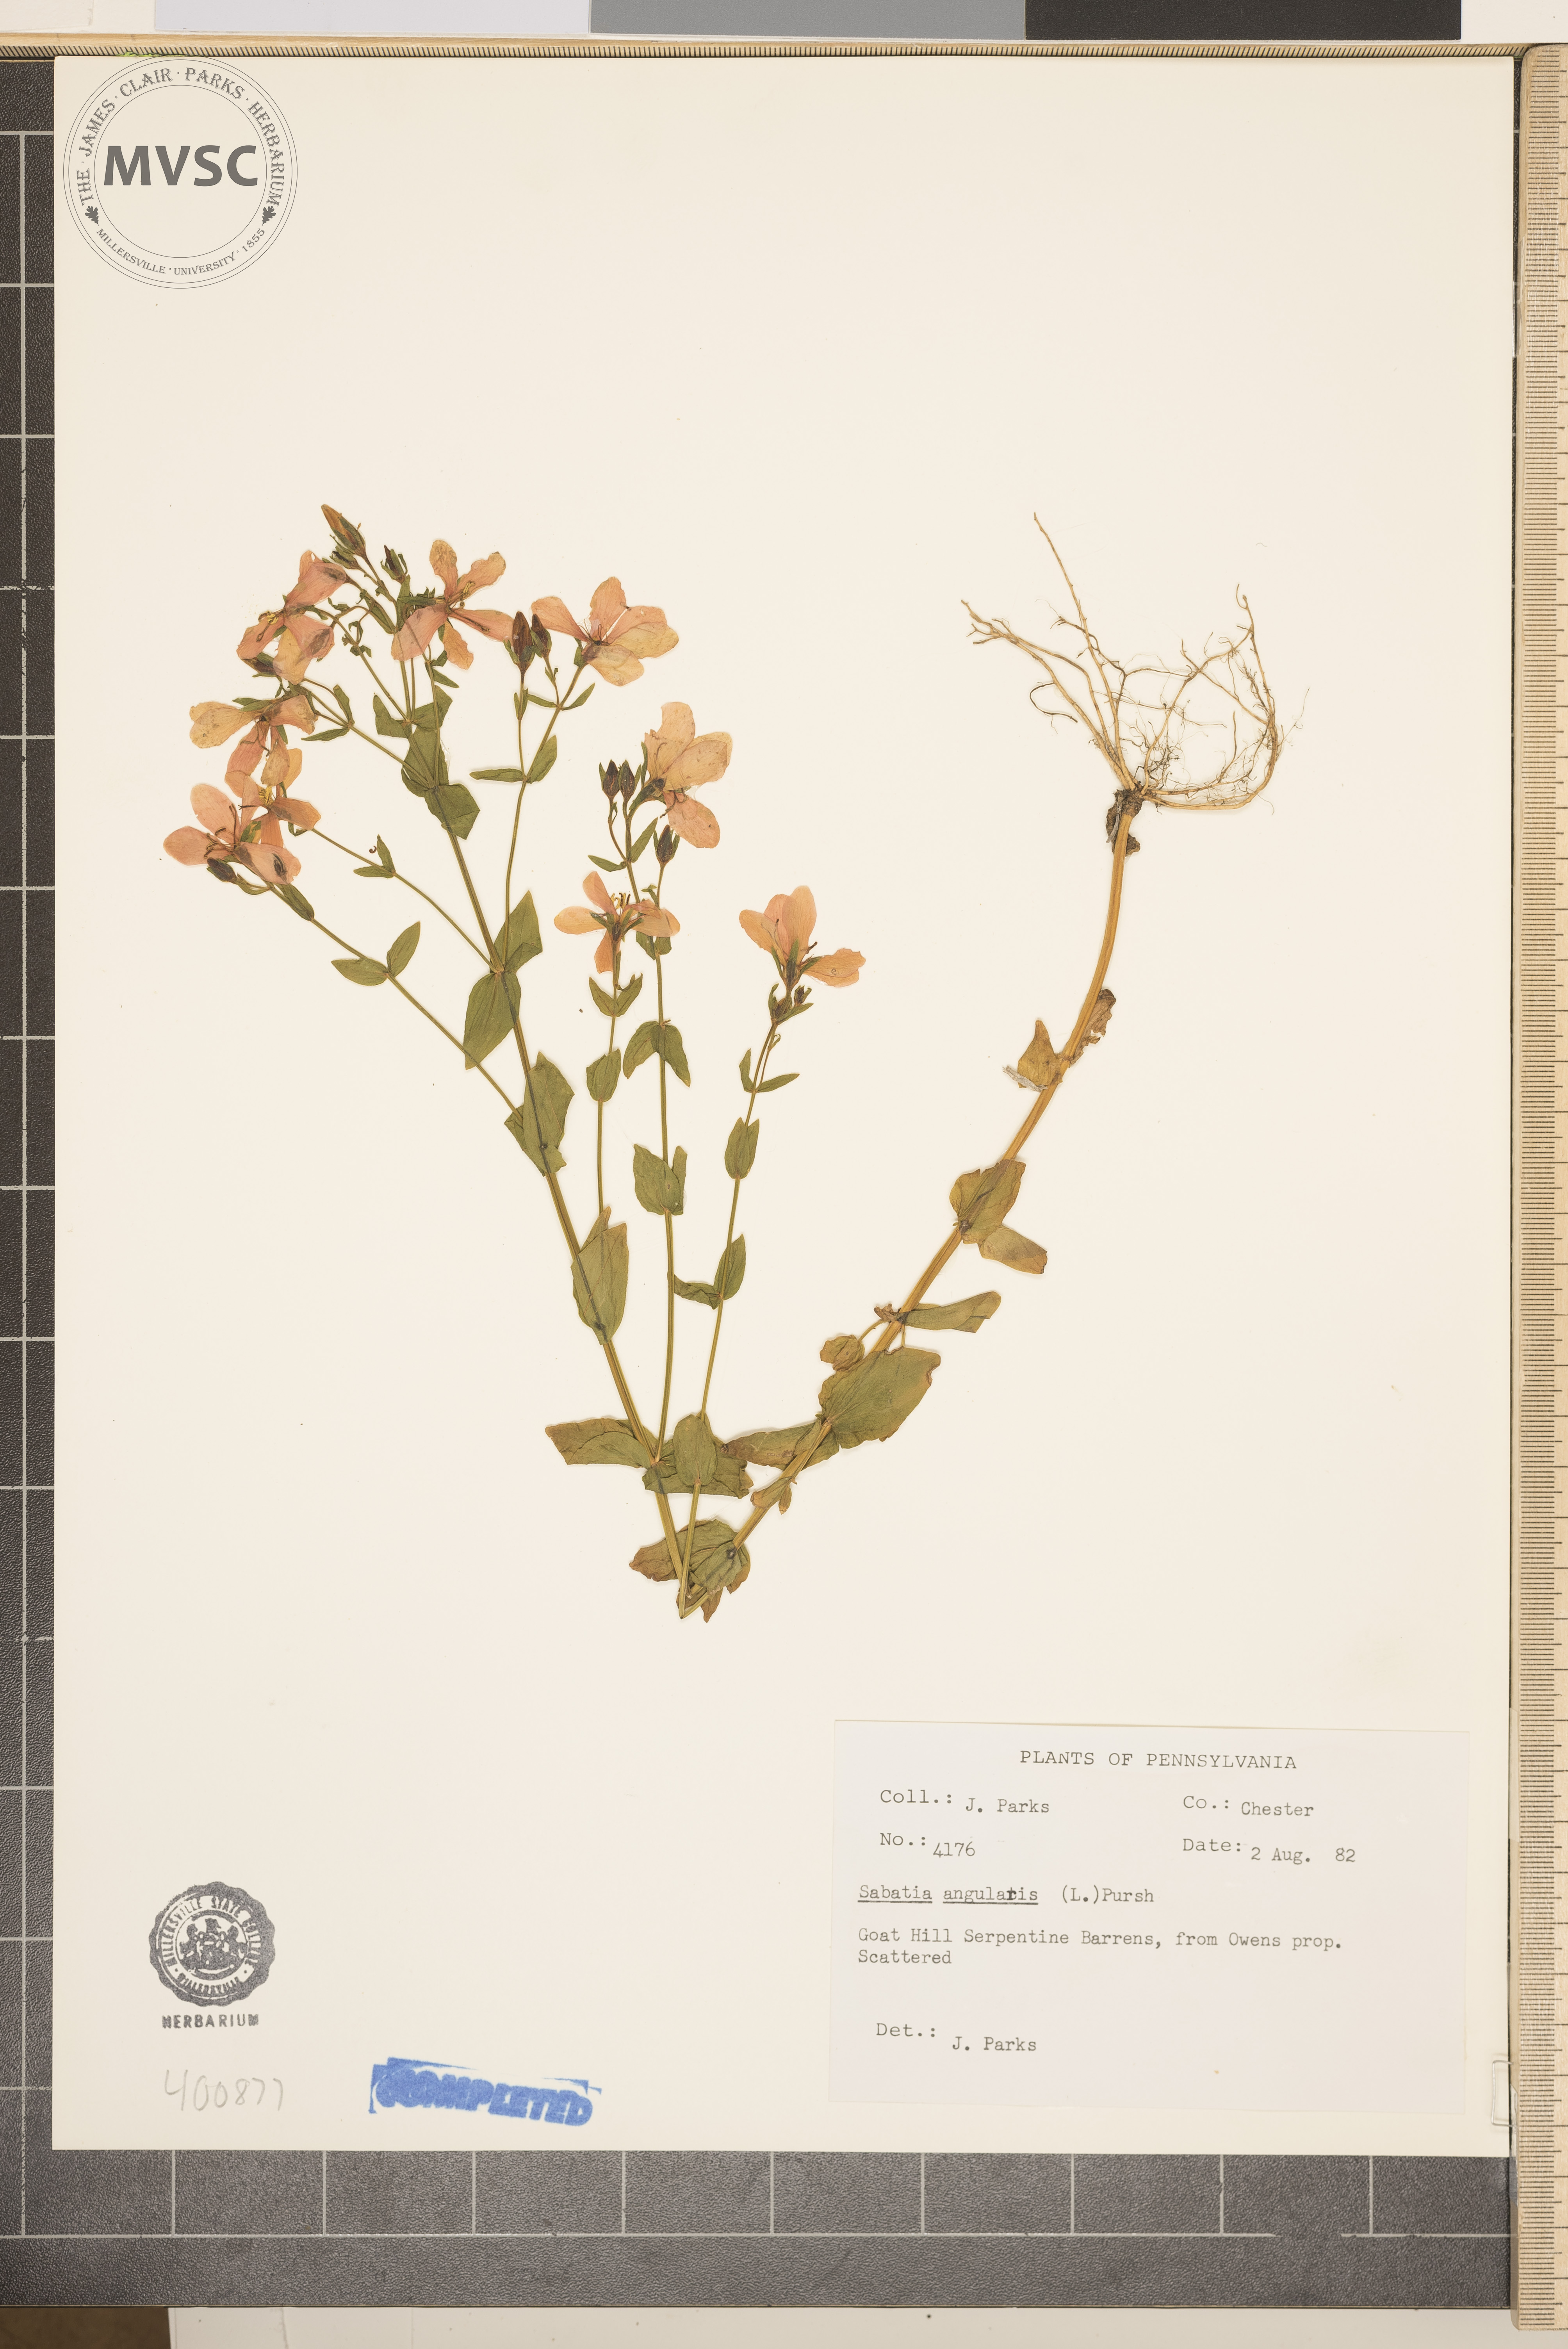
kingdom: Plantae
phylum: Tracheophyta
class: Magnoliopsida
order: Gentianales
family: Gentianaceae
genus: Sabatia
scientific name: Sabatia angularis
